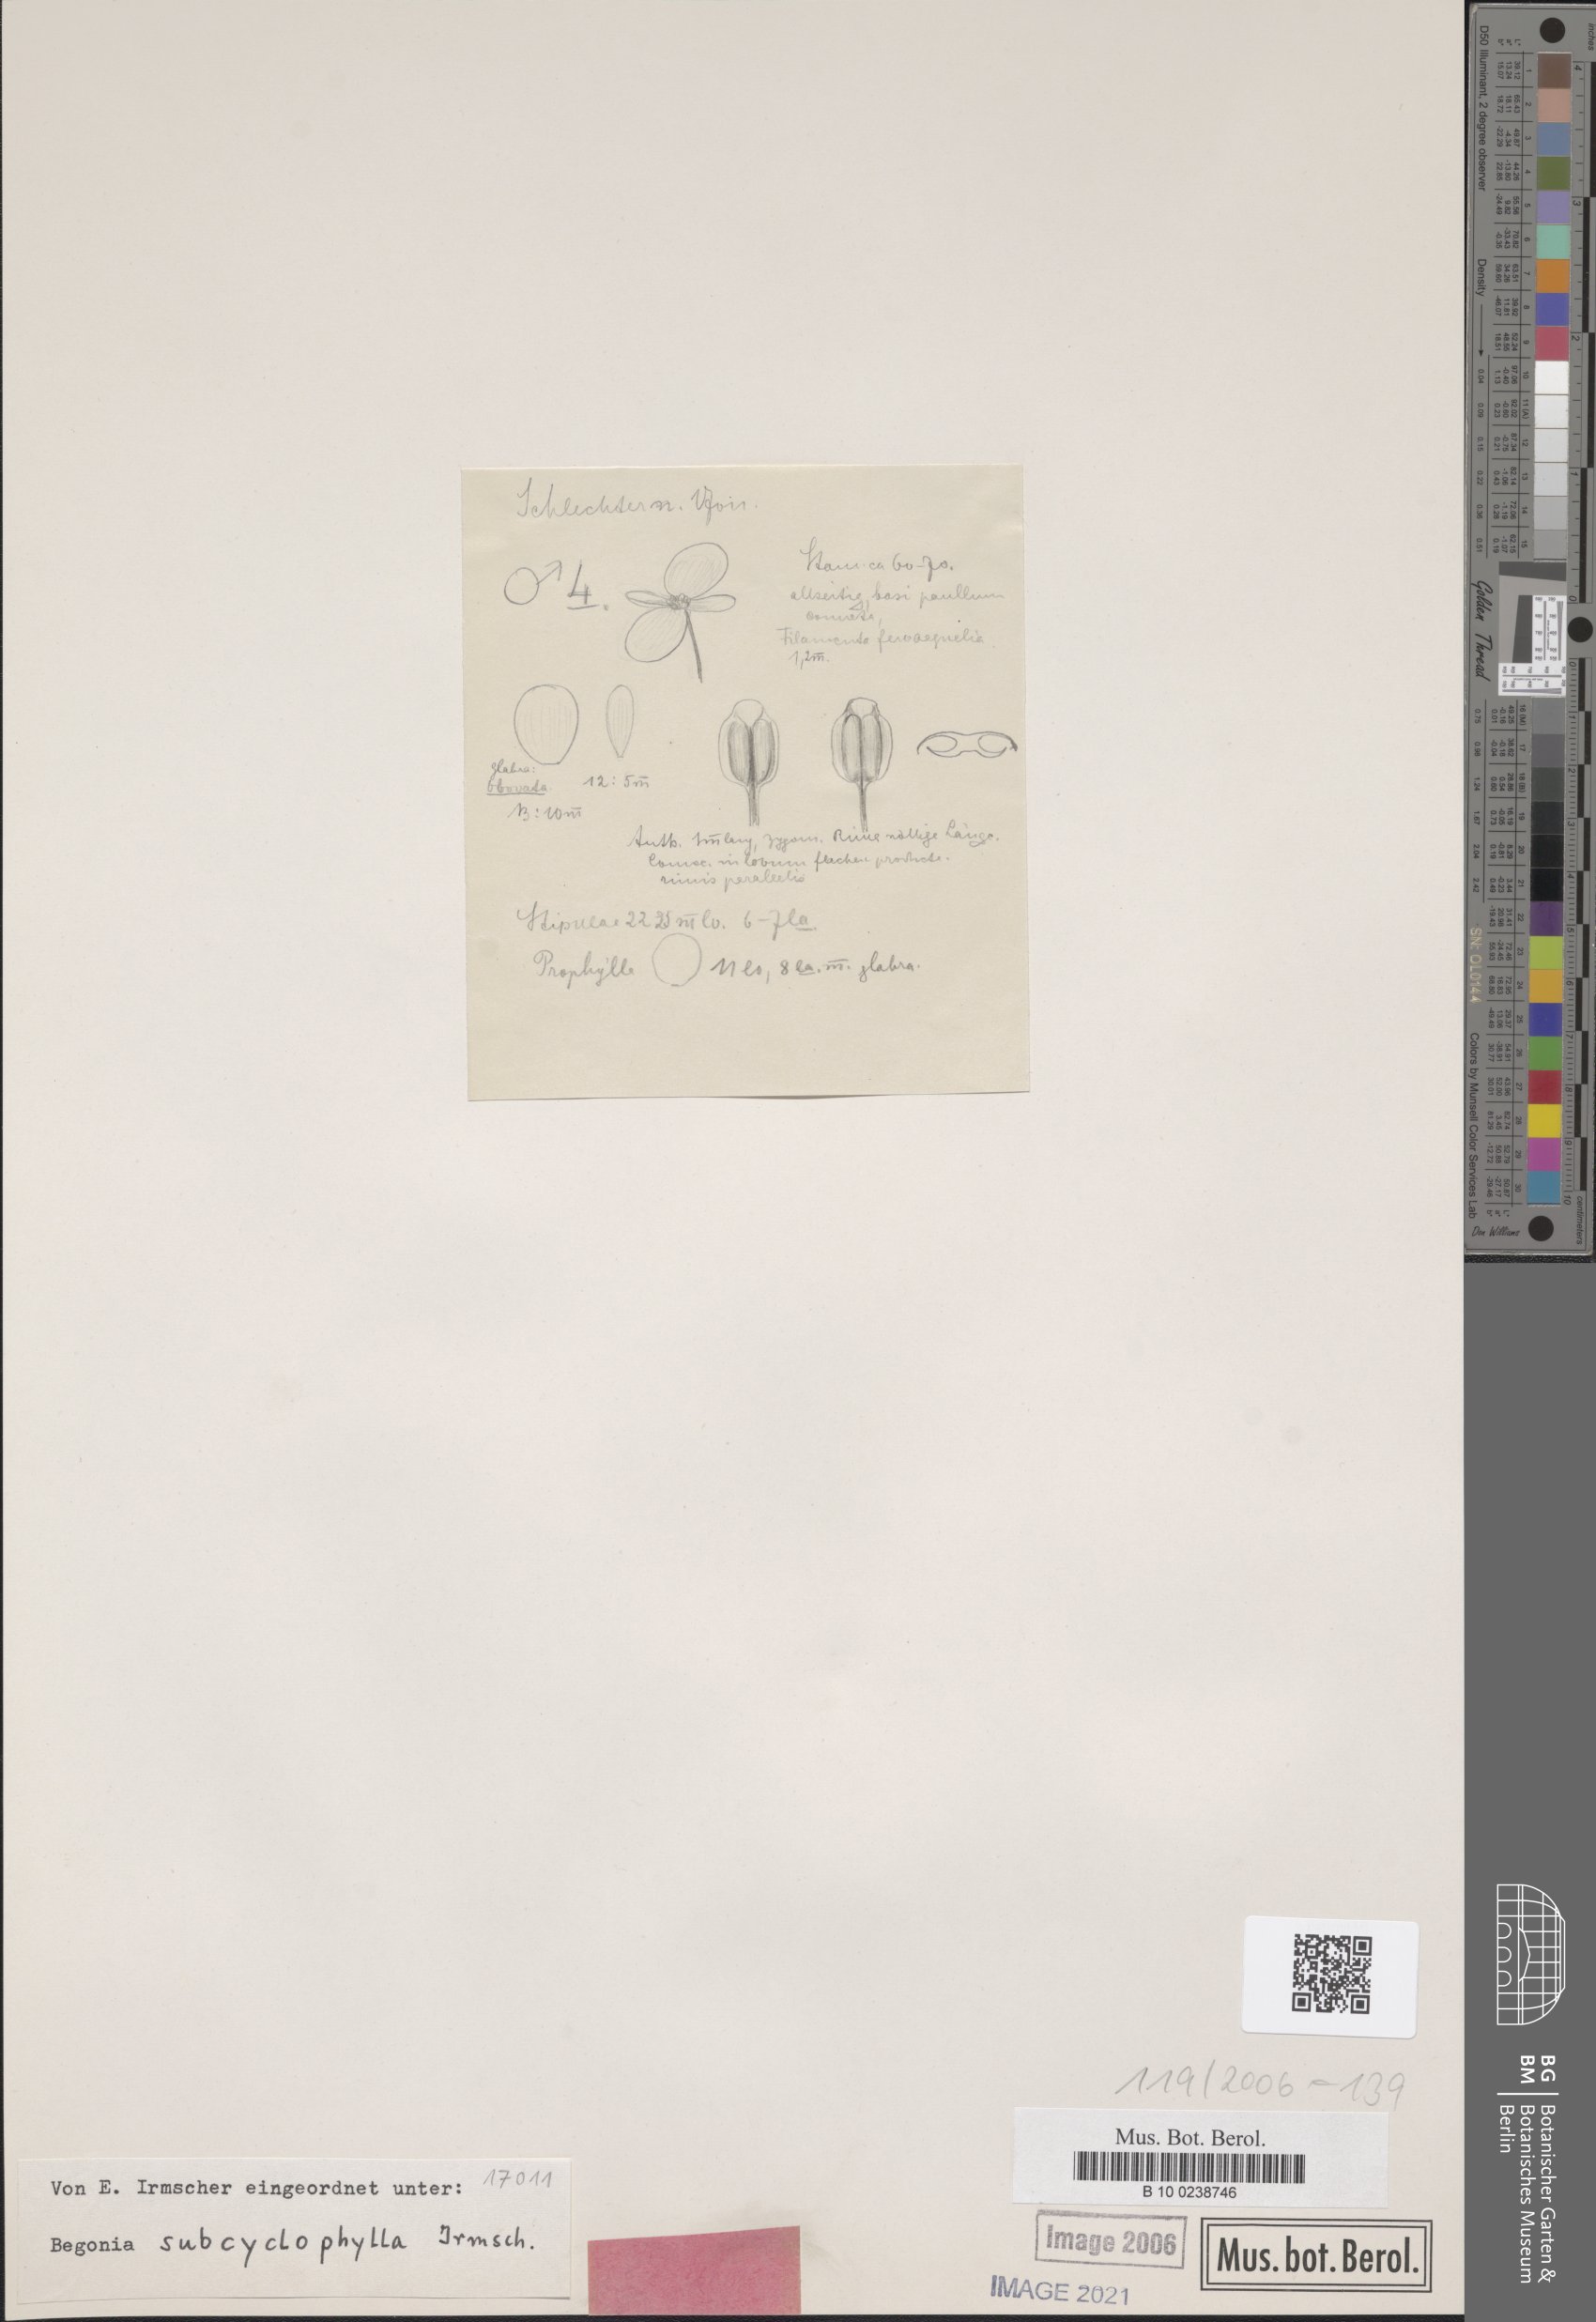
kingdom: Plantae
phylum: Tracheophyta
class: Magnoliopsida
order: Cucurbitales
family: Begoniaceae
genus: Begonia
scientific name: Begonia subcyclophylla
